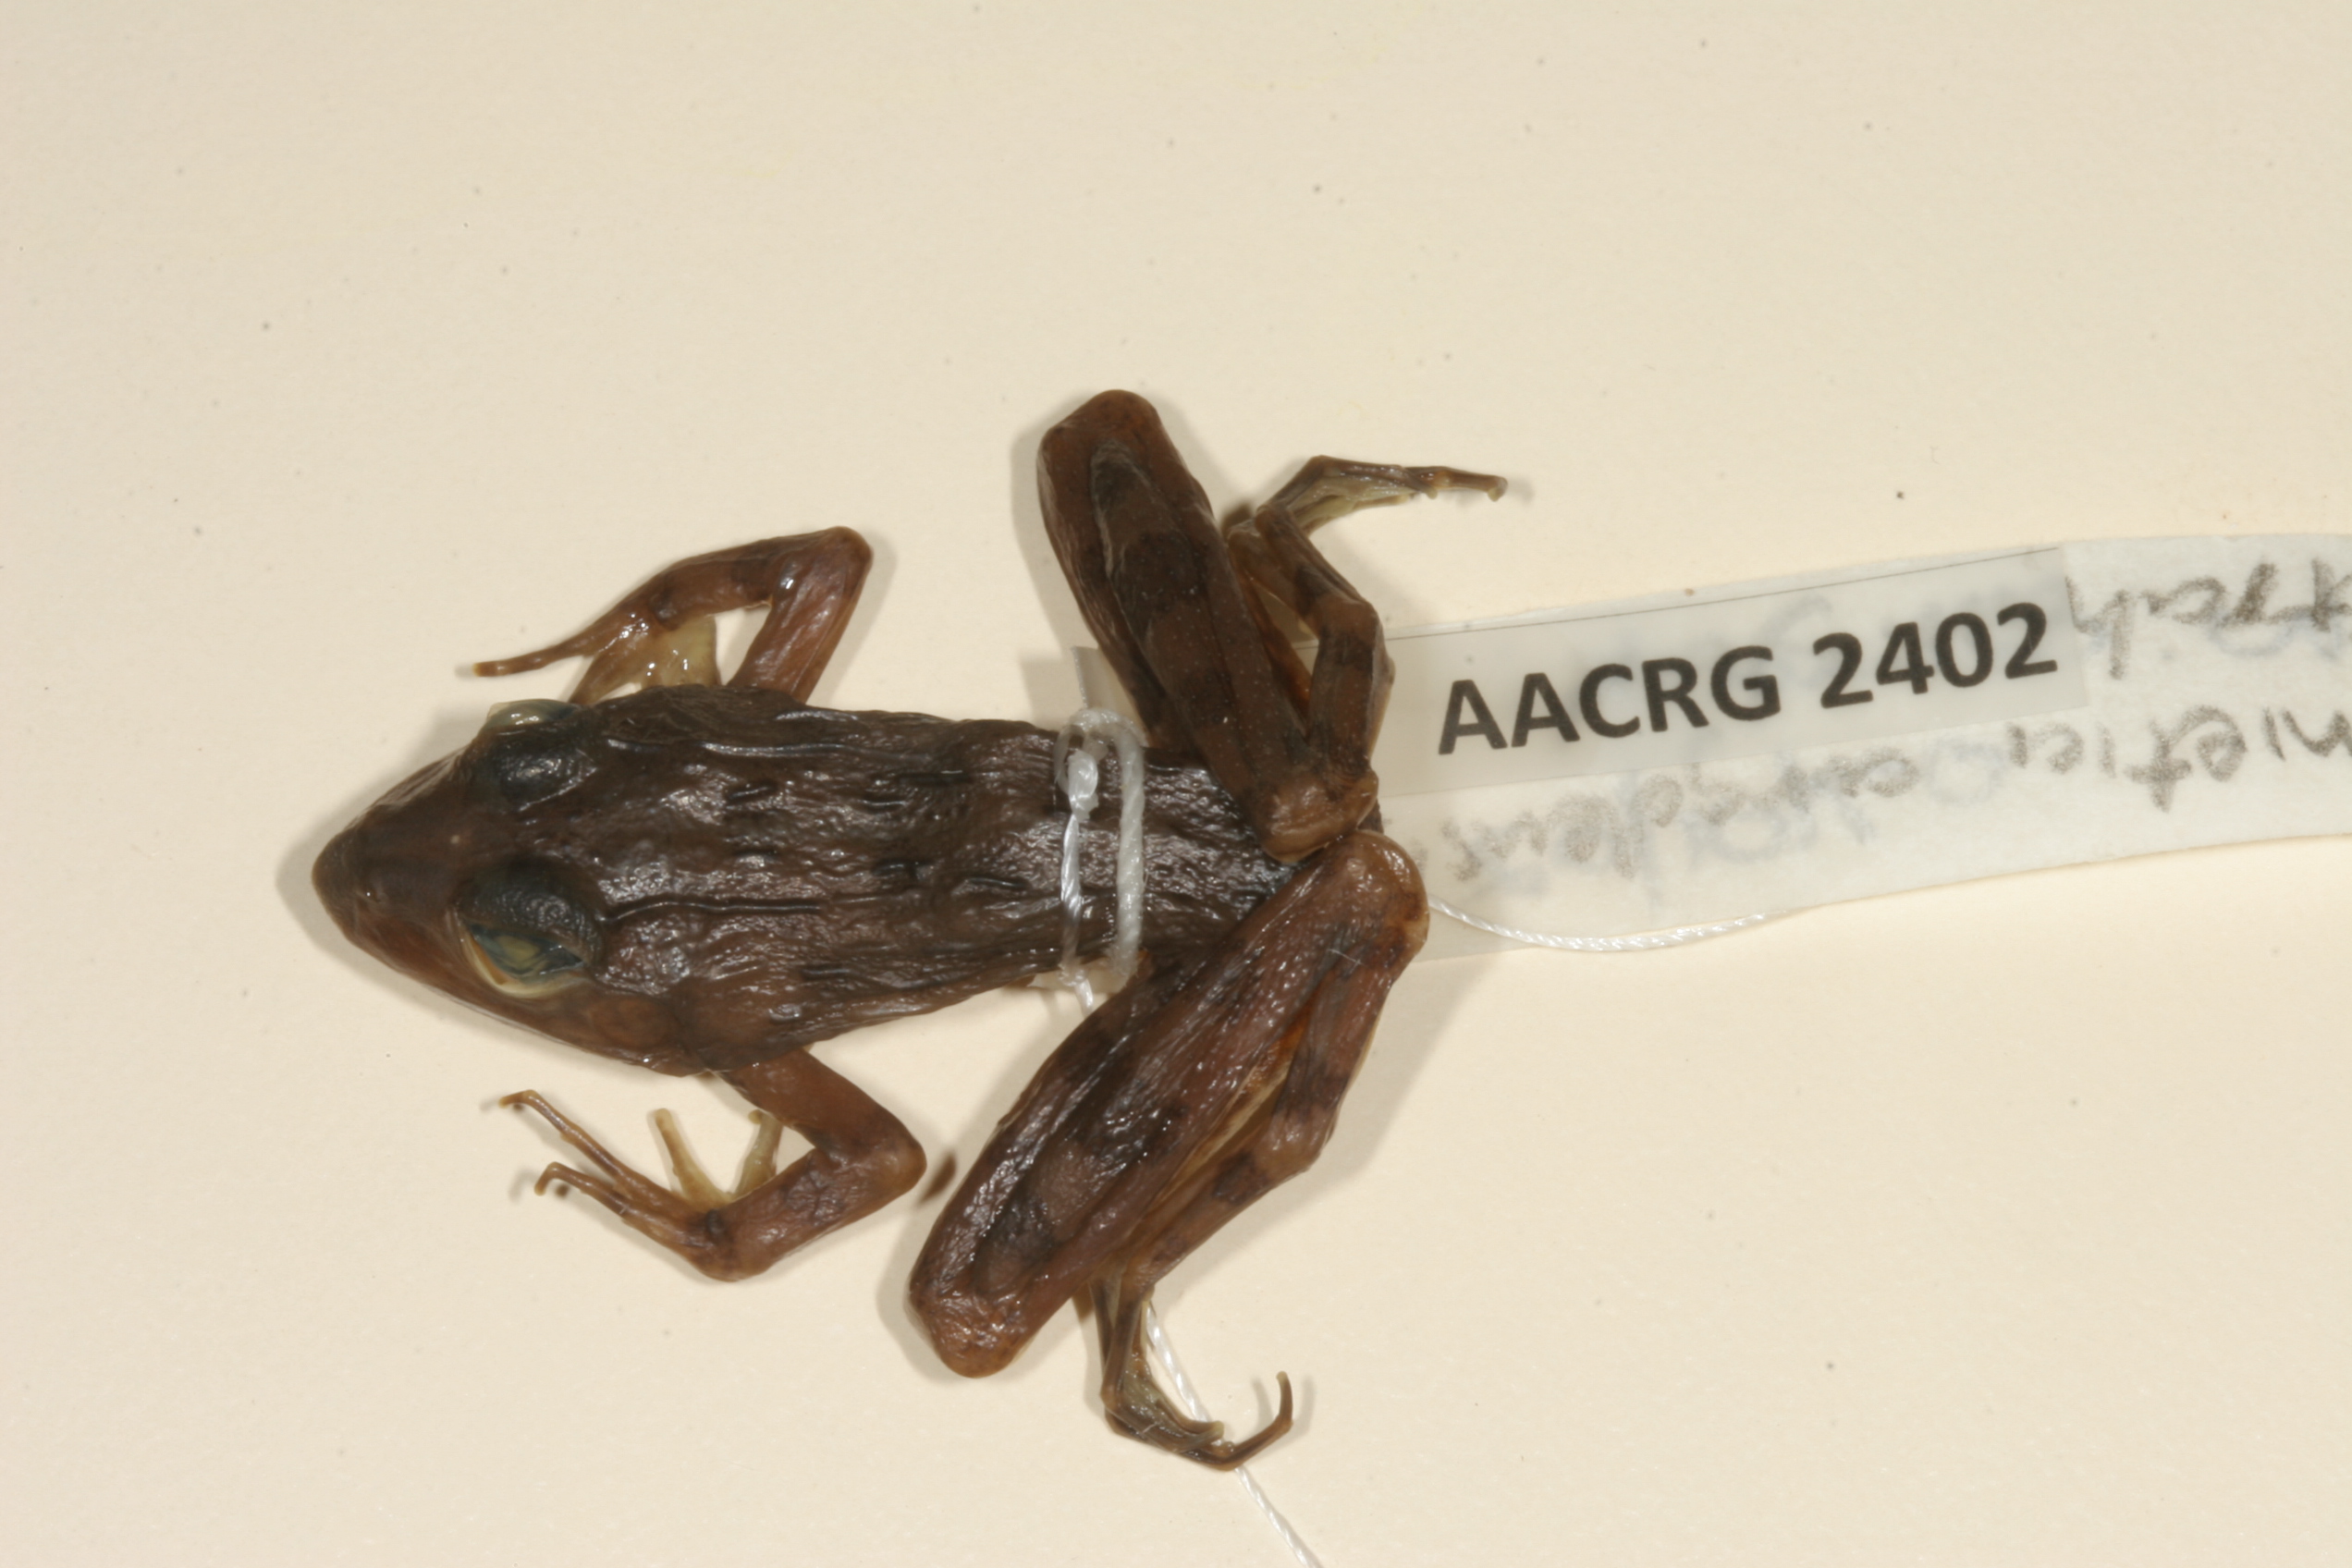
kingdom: Animalia
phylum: Chordata
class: Amphibia
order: Anura
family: Pyxicephalidae
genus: Amietia
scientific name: Amietia delalandii
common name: Delalande's river frog
